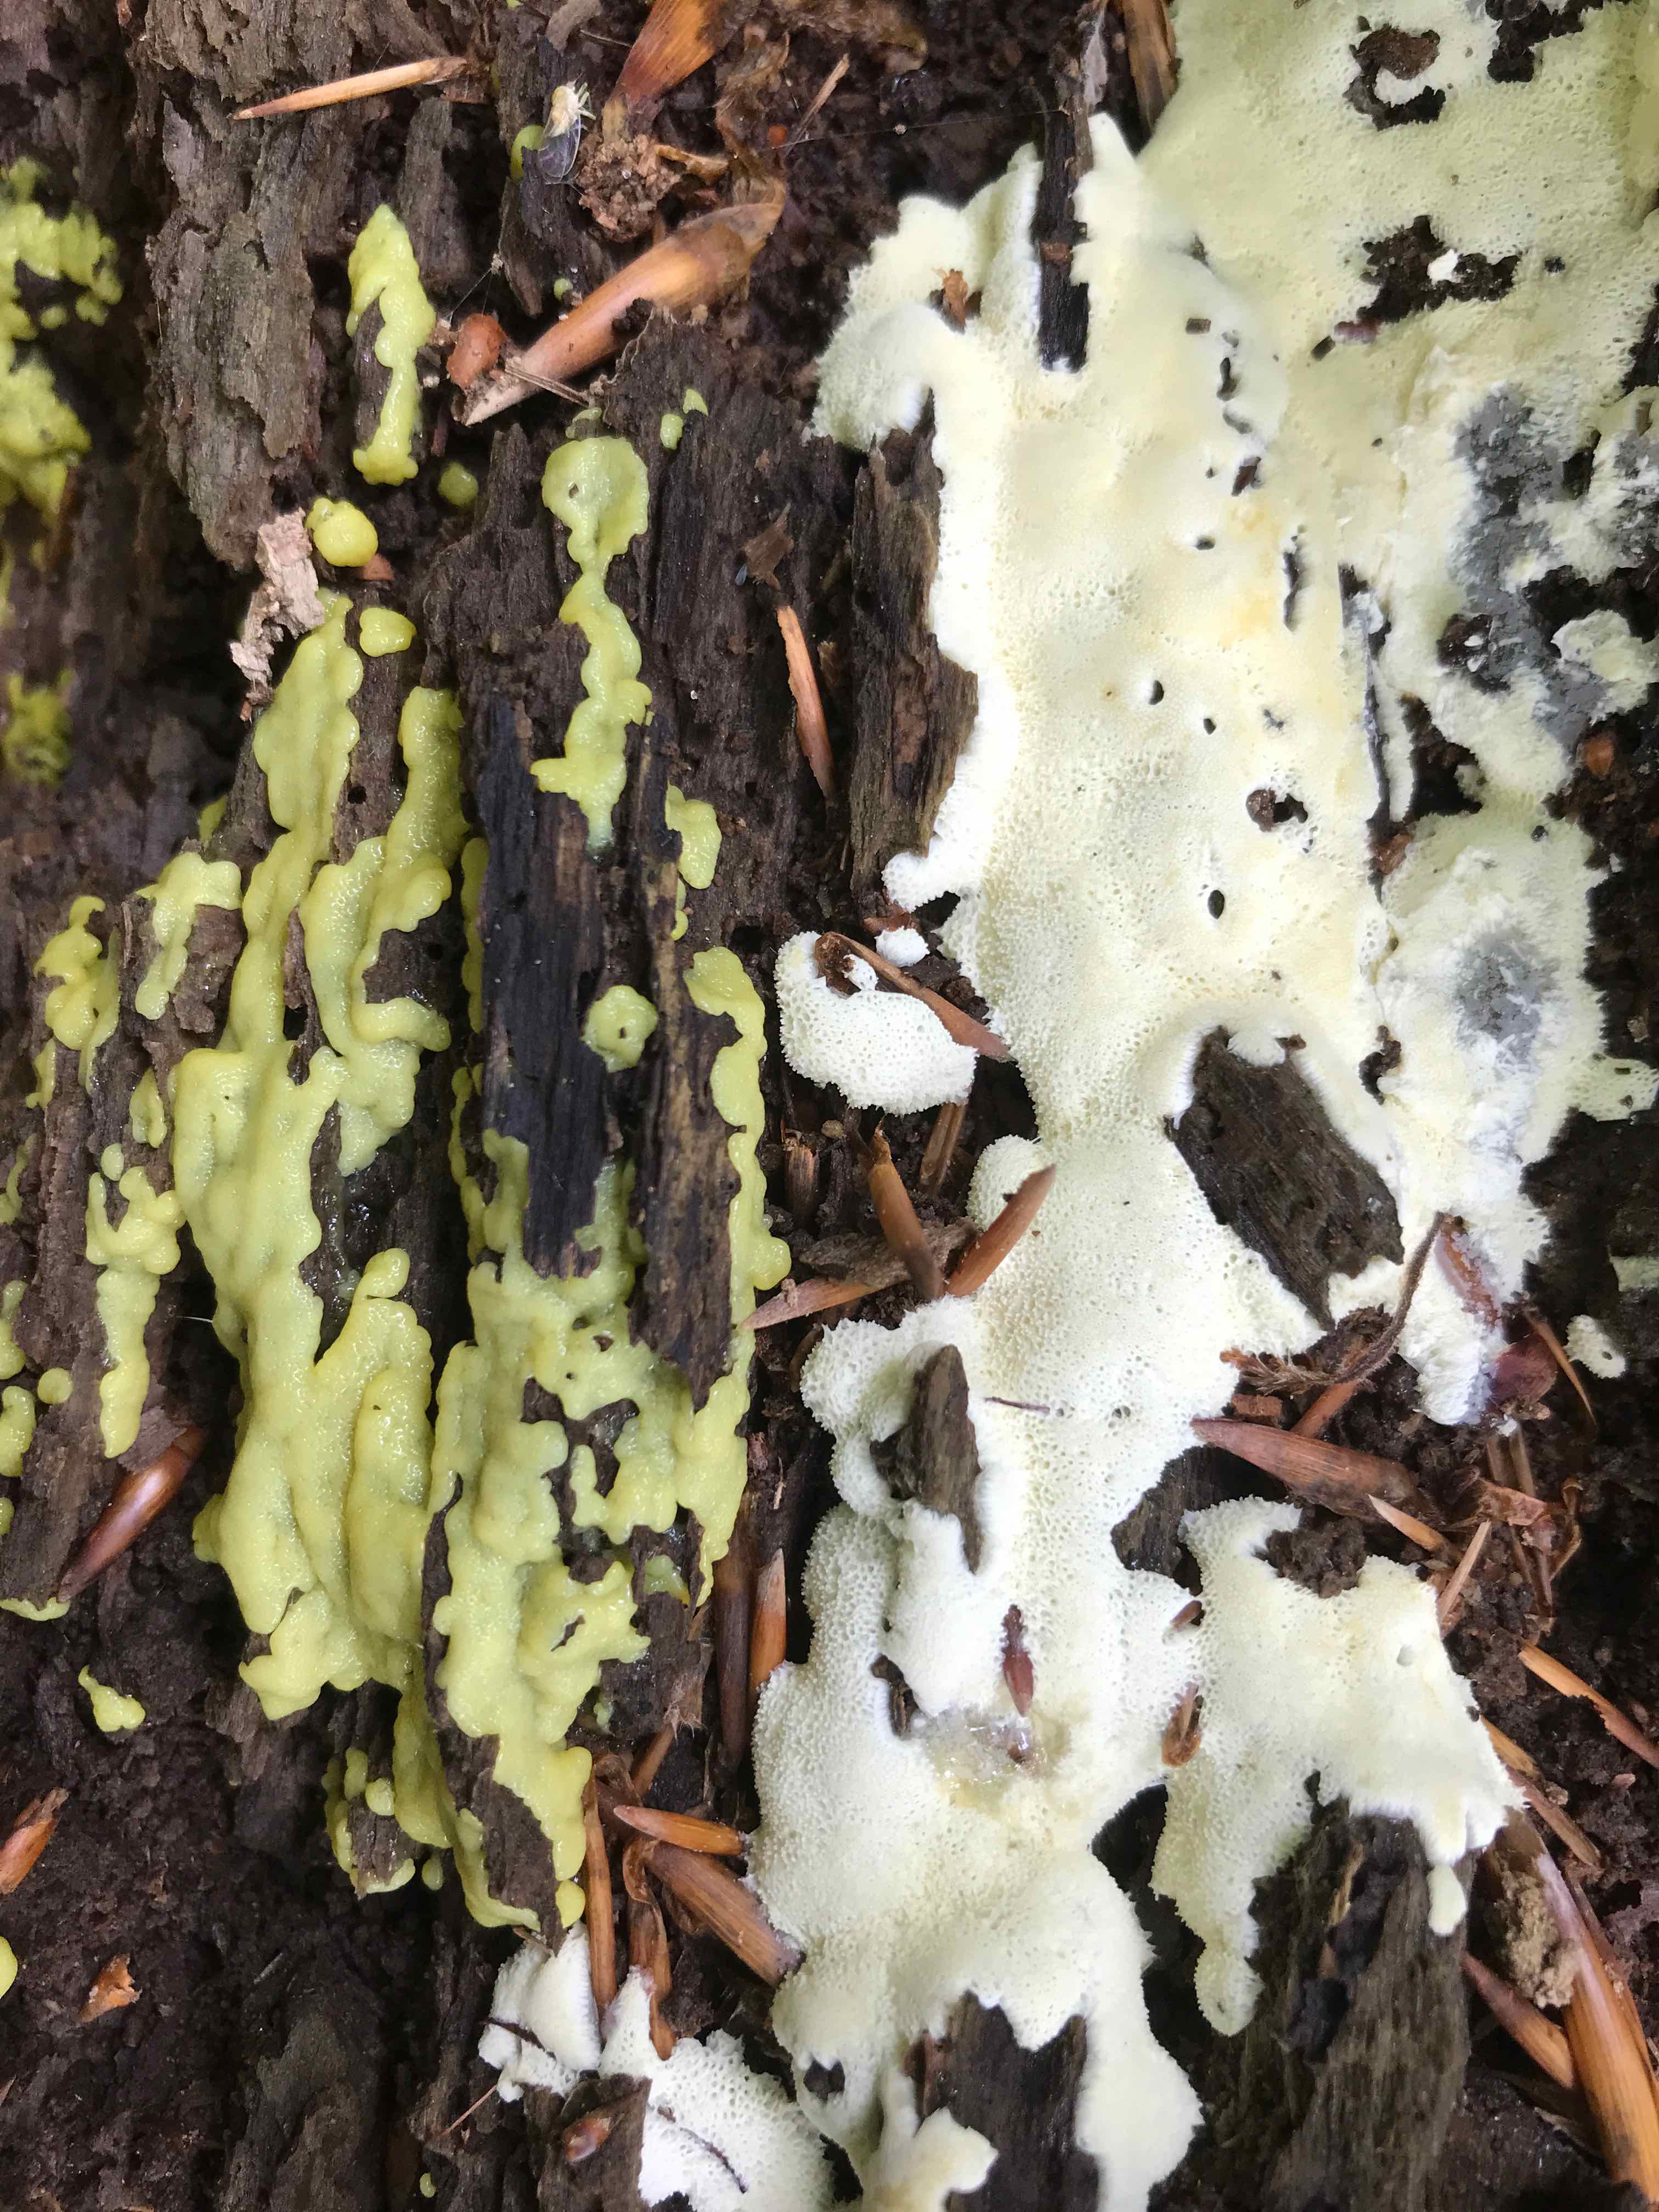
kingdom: Protozoa
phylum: Mycetozoa
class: Protosteliomycetes
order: Ceratiomyxales
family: Ceratiomyxaceae
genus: Ceratiomyxa
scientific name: Ceratiomyxa fruticulosa
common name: Honeycomb coral slime mold
